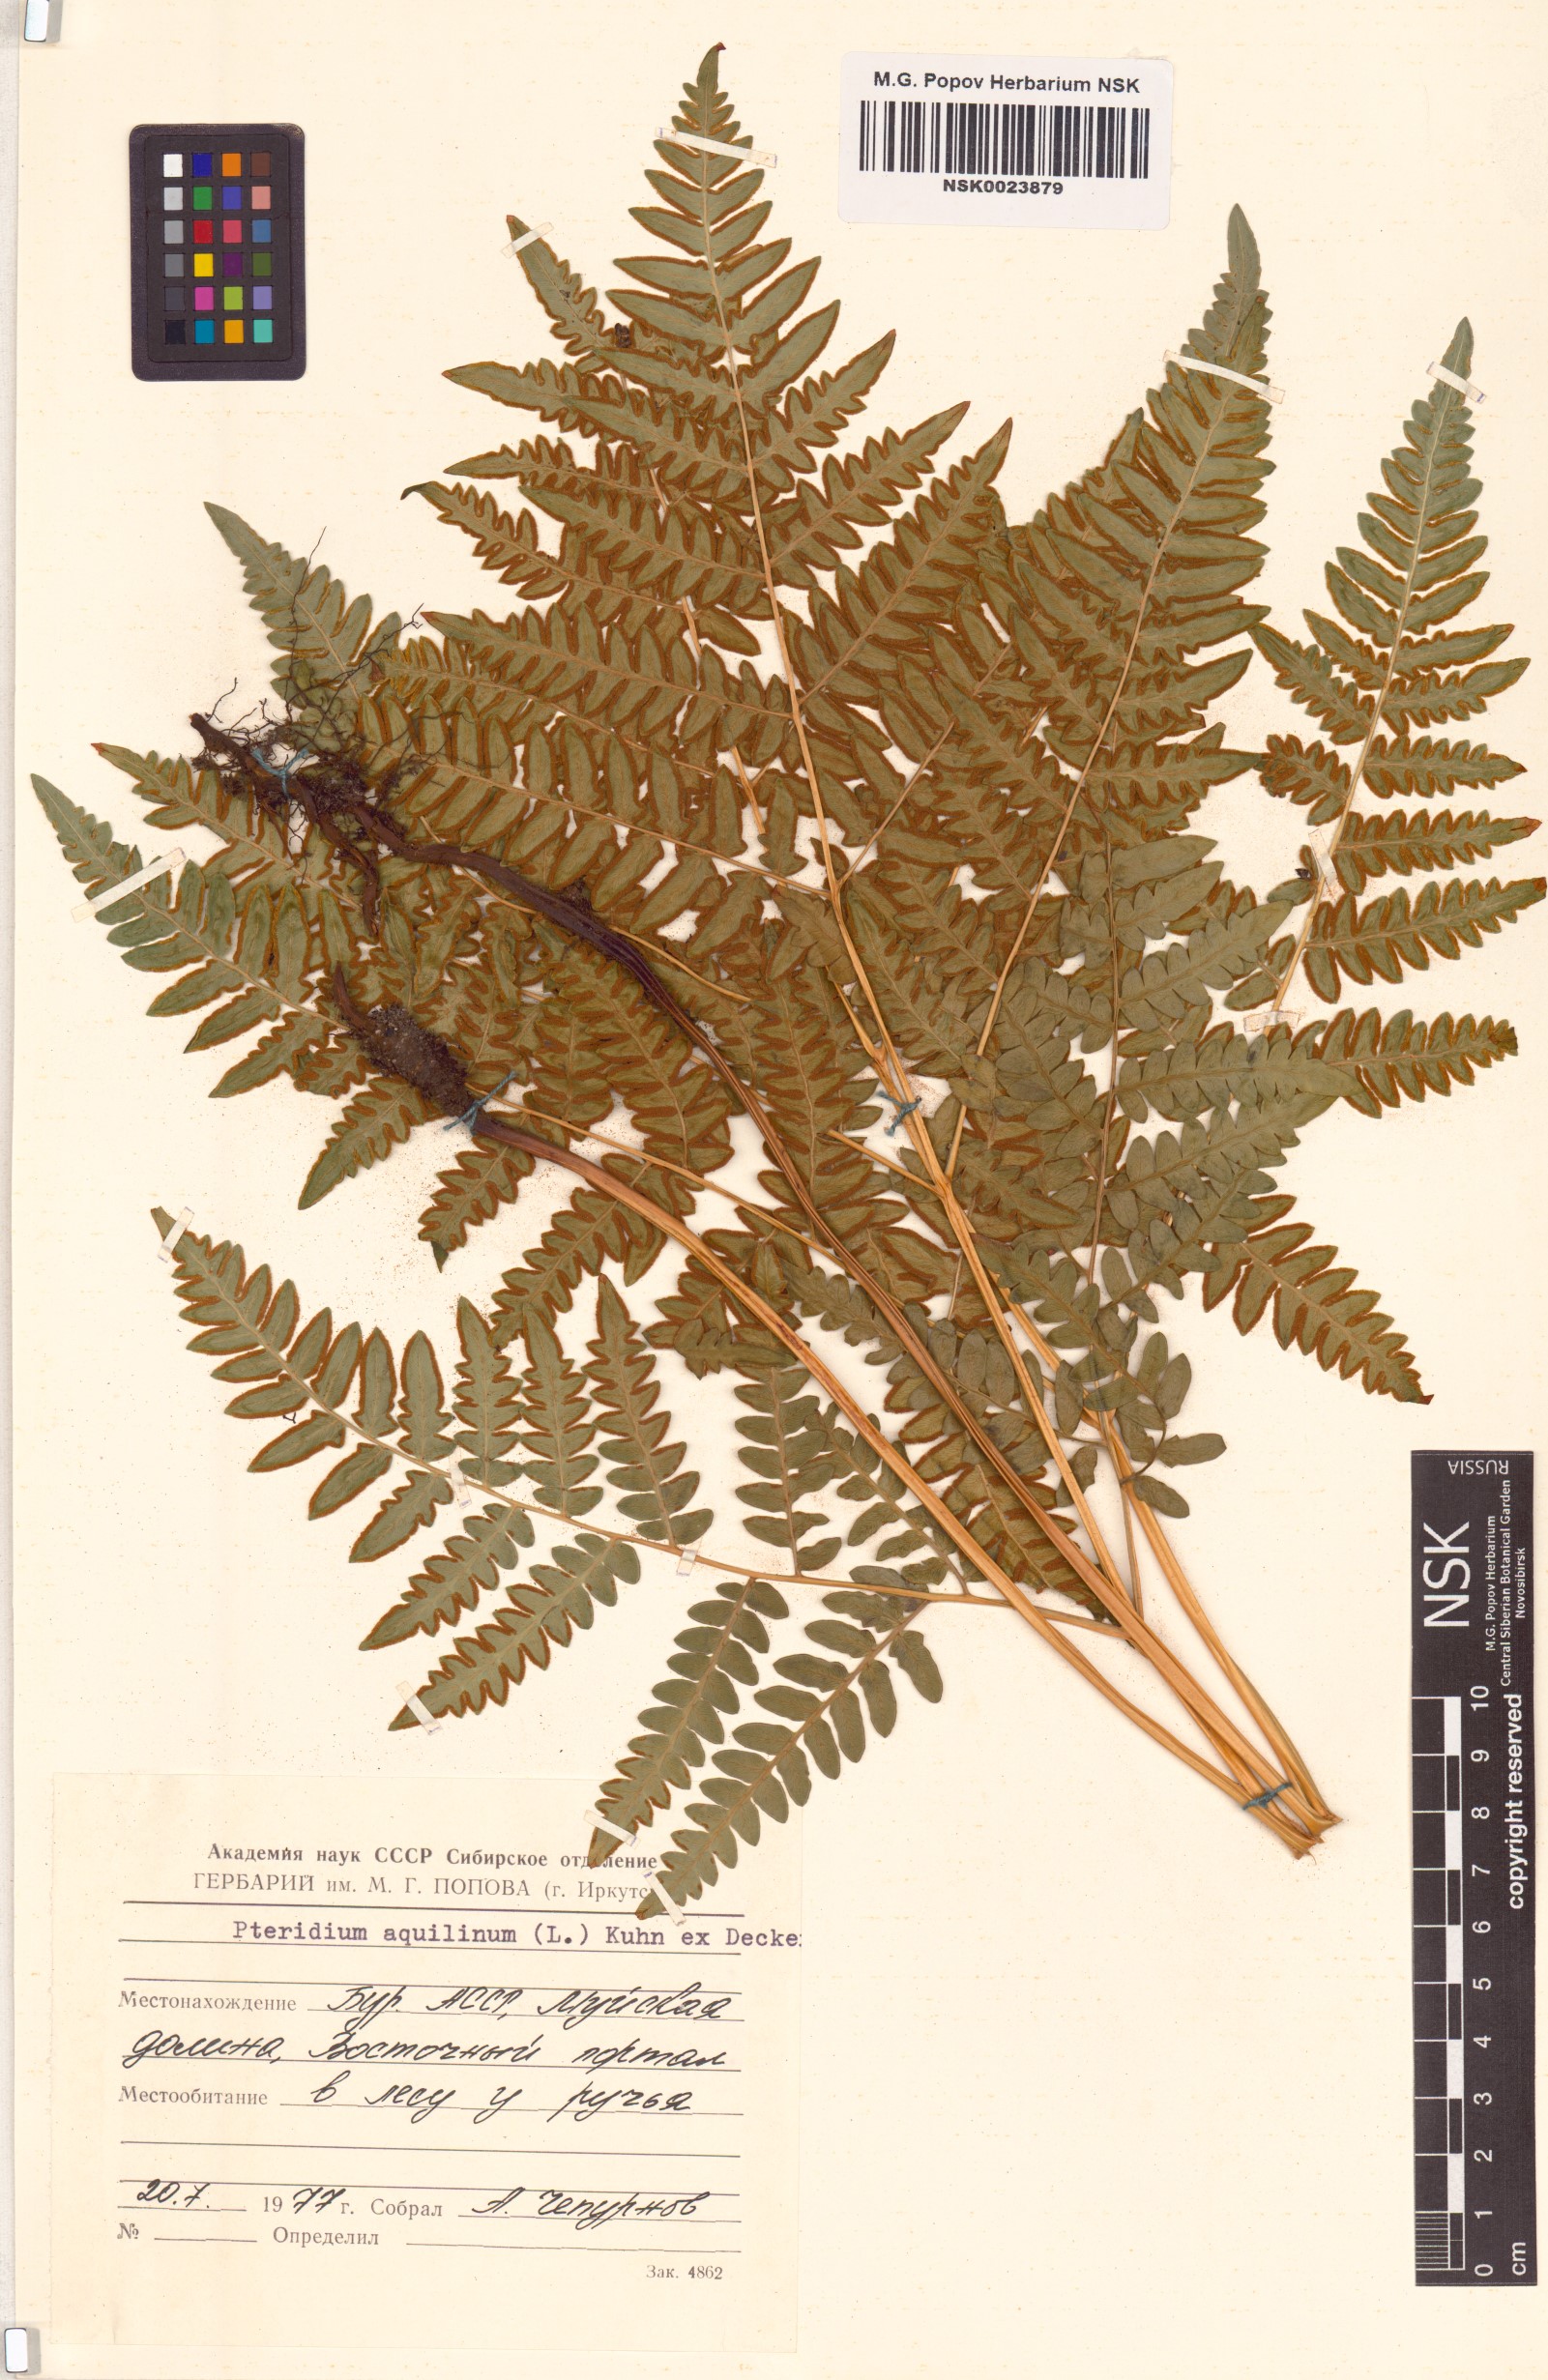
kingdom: Plantae
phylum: Tracheophyta
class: Polypodiopsida
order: Polypodiales
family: Dennstaedtiaceae
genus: Pteridium
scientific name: Pteridium aquilinum
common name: Bracken
